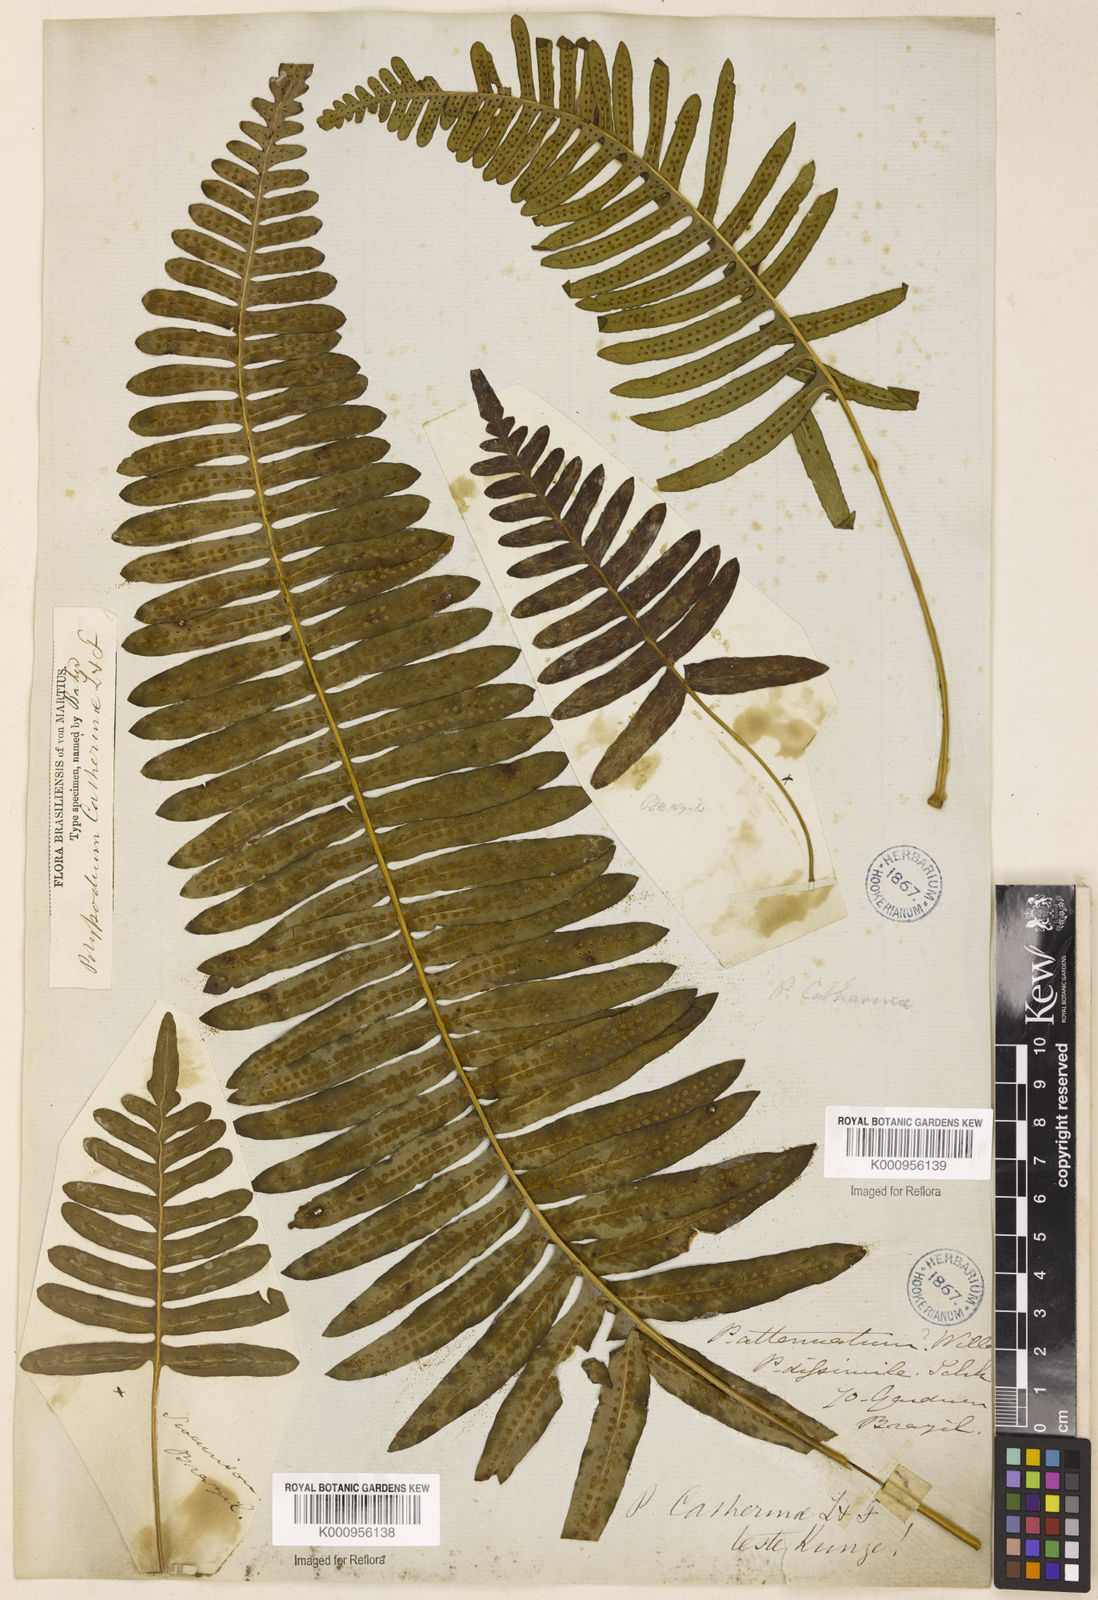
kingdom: Plantae
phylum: Tracheophyta
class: Polypodiopsida
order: Polypodiales
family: Polypodiaceae
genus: Serpocaulon
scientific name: Serpocaulon catharinae
